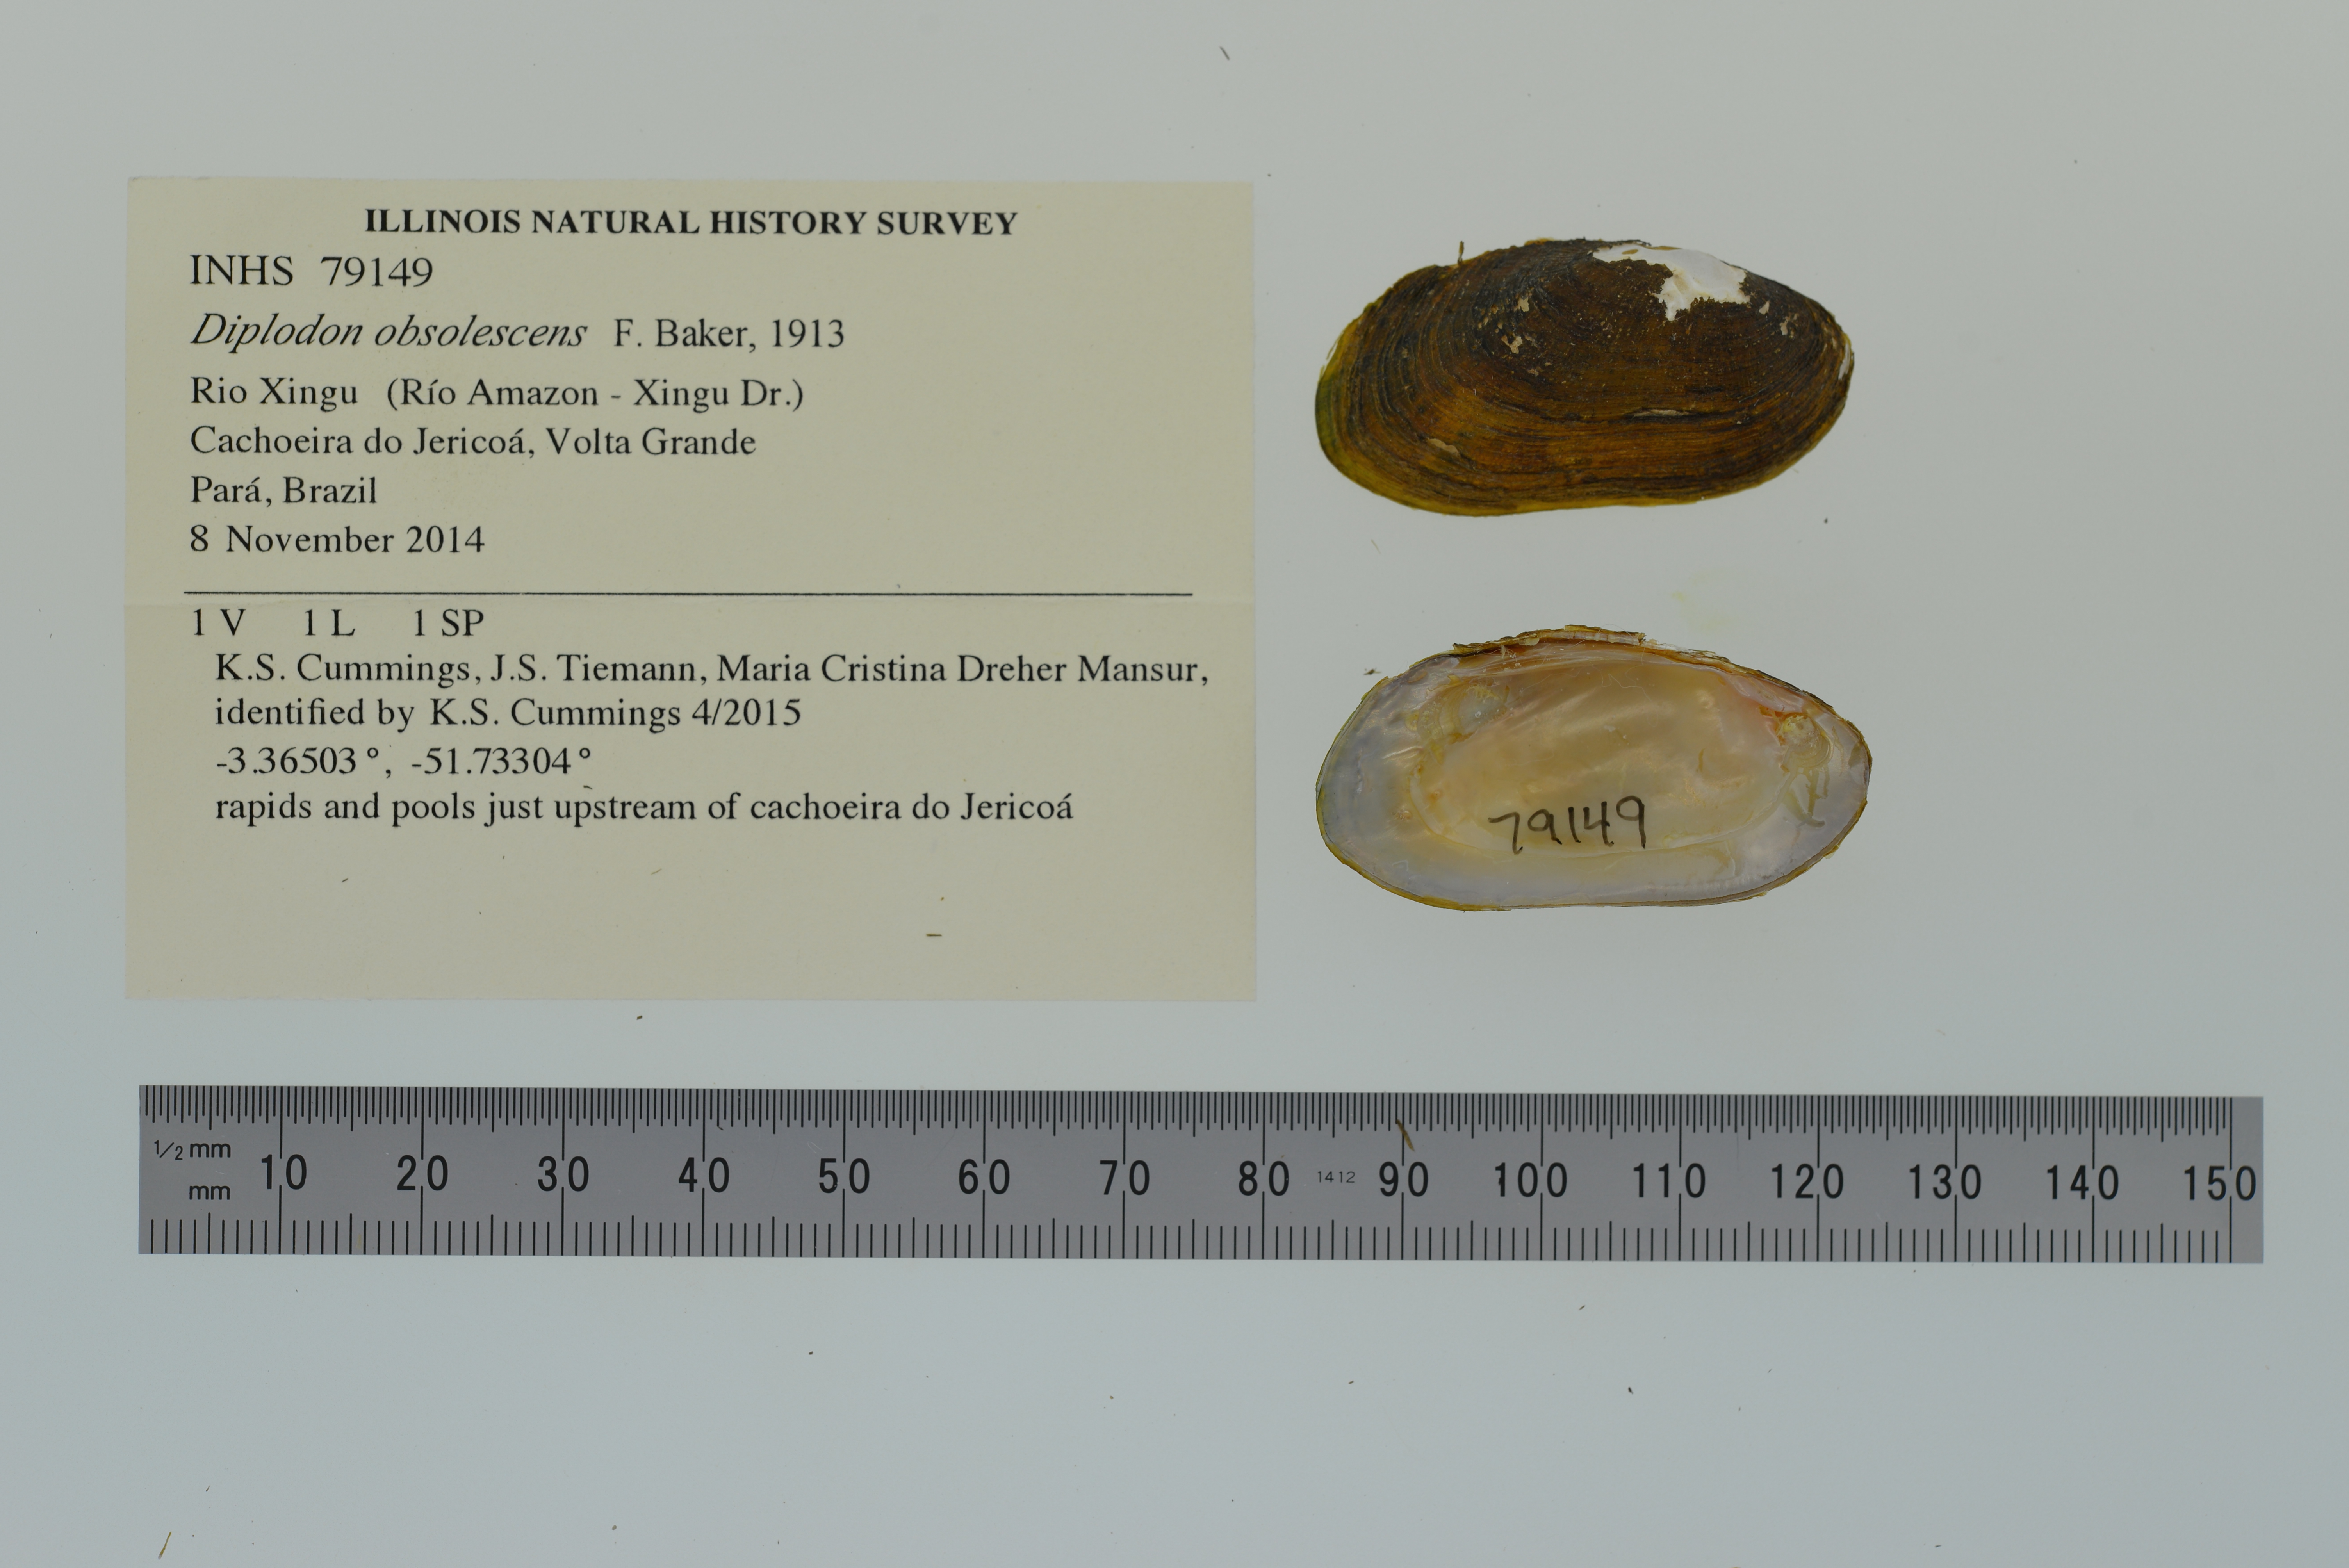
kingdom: Animalia
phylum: Mollusca
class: Bivalvia
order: Unionida
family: Hyriidae
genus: Diplodon
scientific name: Diplodon obsolescens
